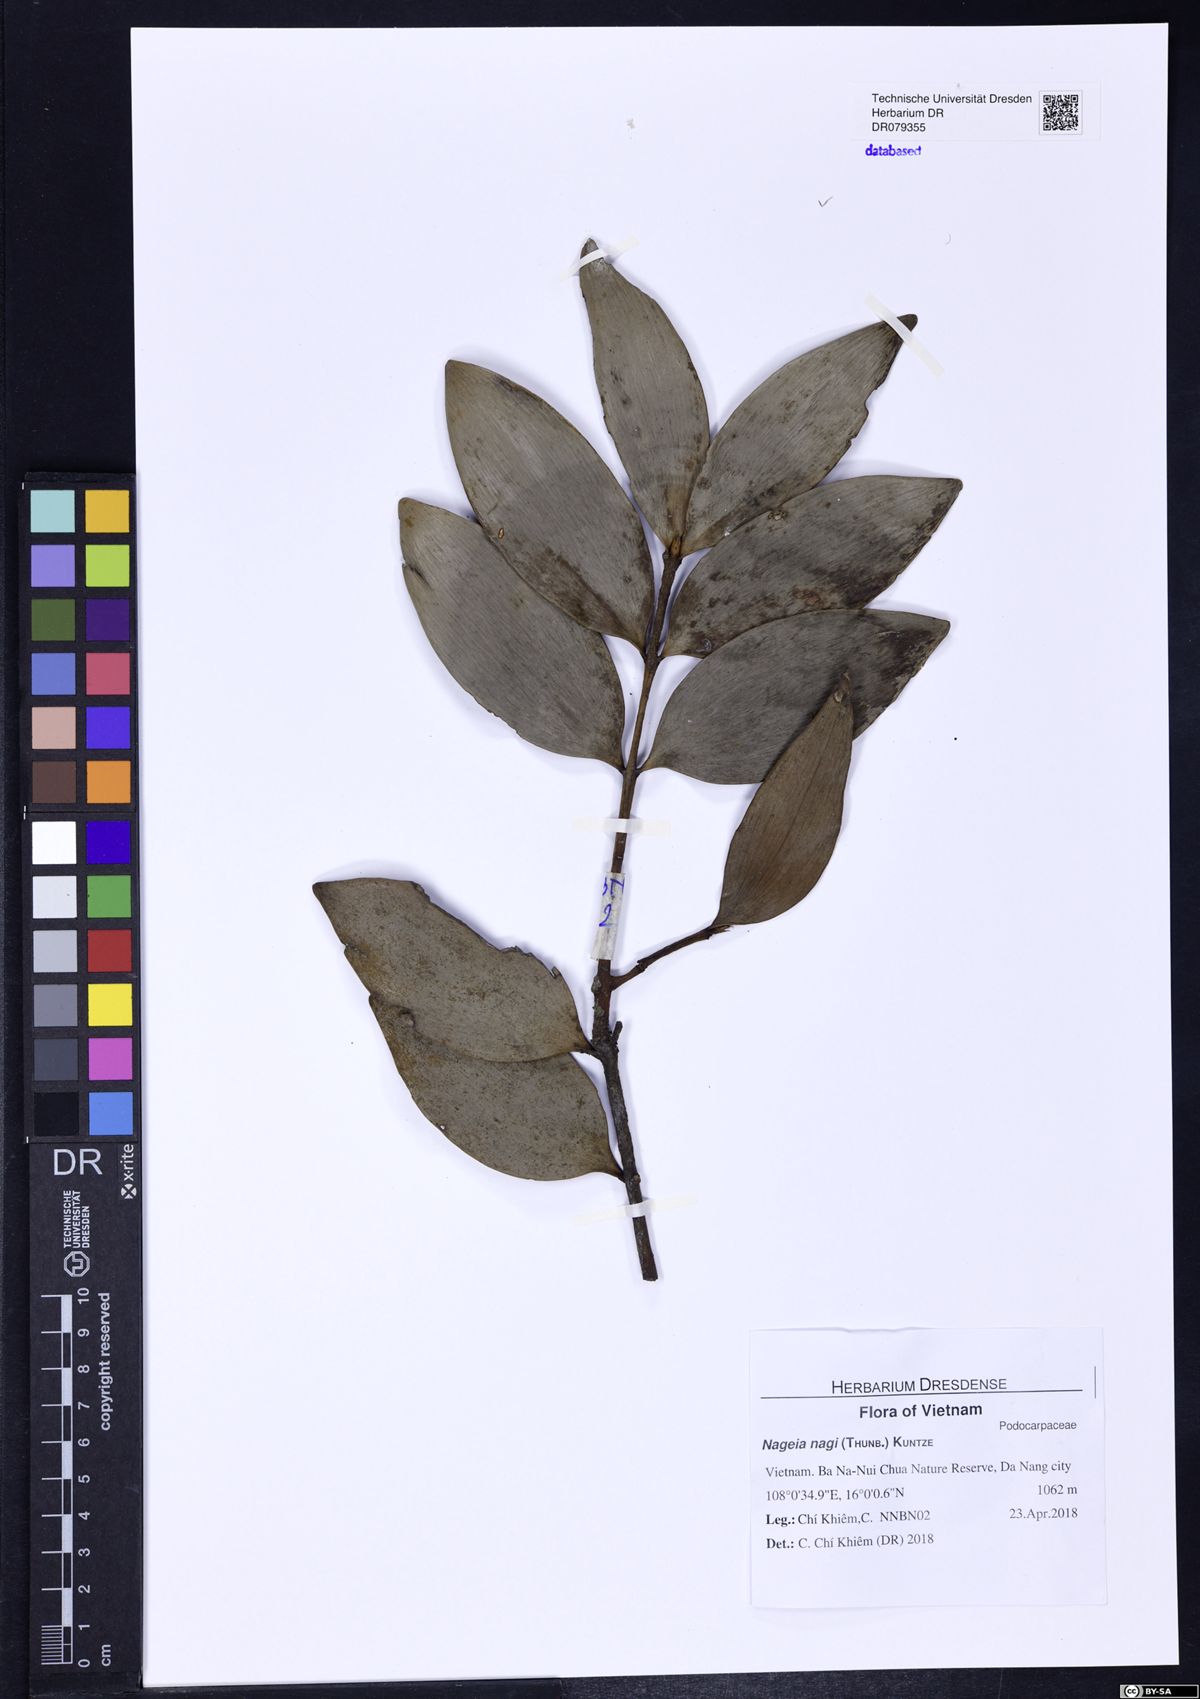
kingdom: Plantae
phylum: Tracheophyta
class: Pinopsida
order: Pinales
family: Podocarpaceae
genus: Nageia
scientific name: Nageia nagi
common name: Kaphal
